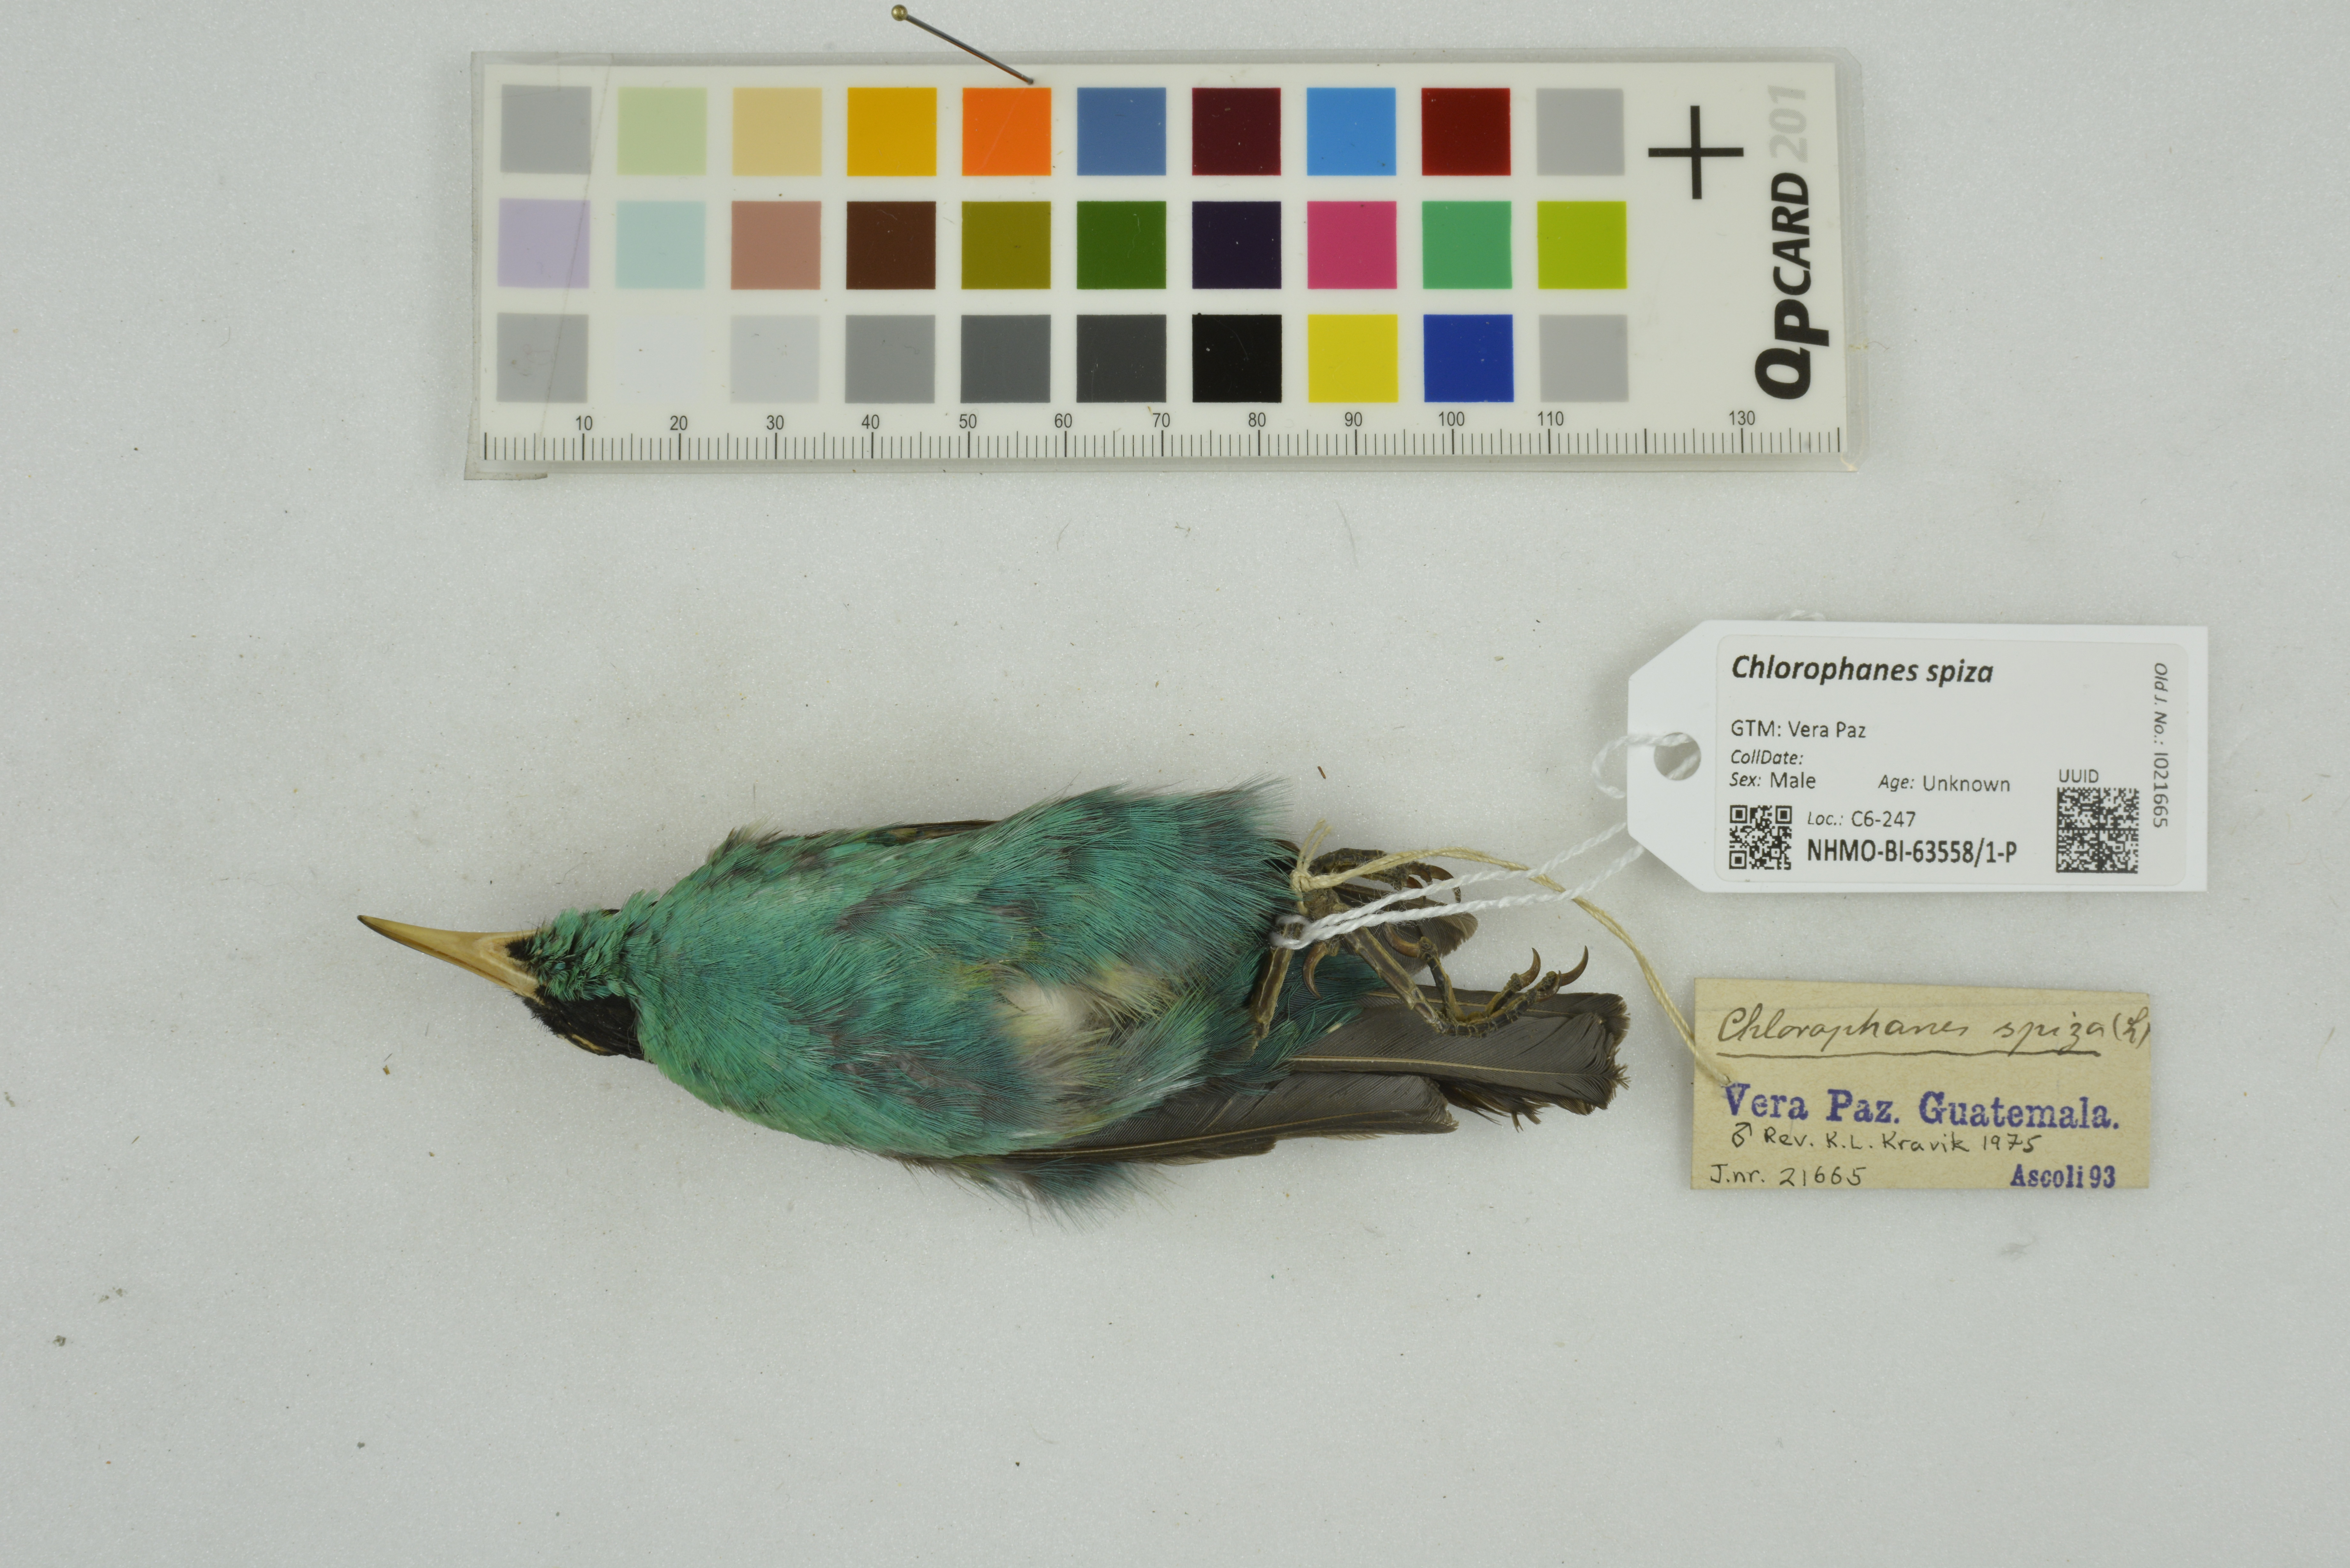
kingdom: Animalia
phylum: Chordata
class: Aves
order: Passeriformes
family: Thraupidae
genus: Chlorophanes
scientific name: Chlorophanes spiza
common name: Green honeycreeper
